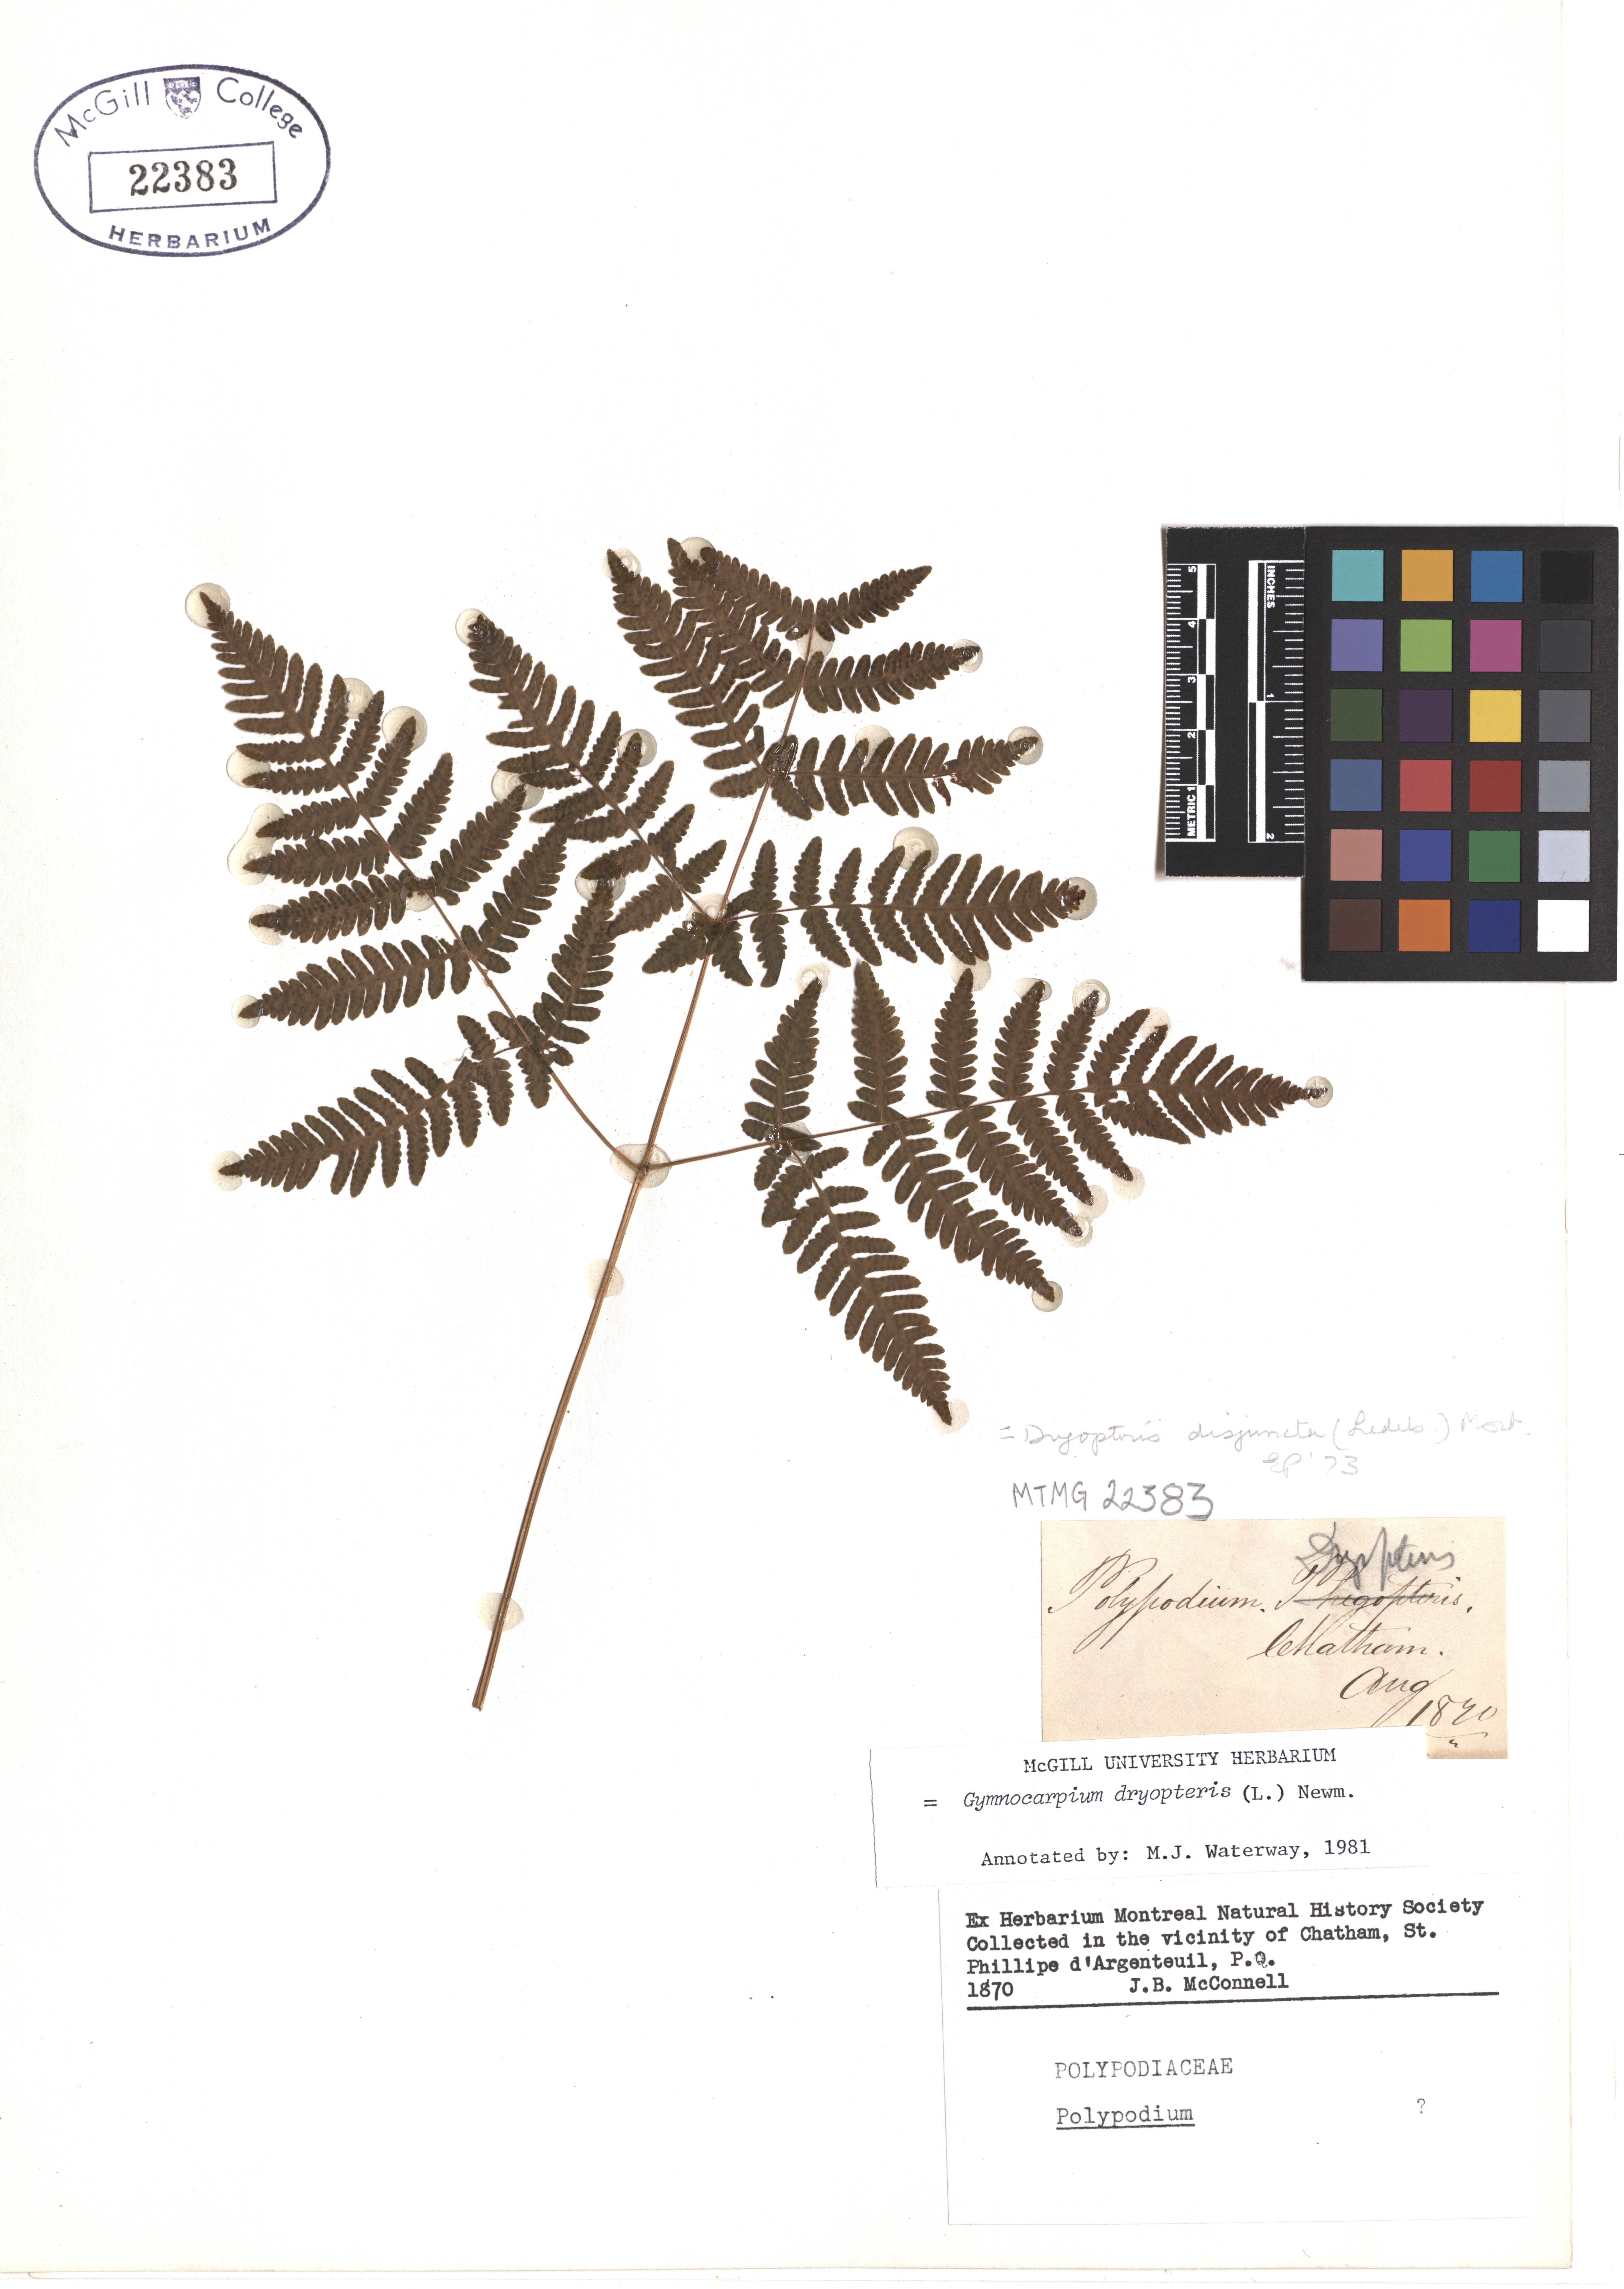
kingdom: Plantae
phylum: Tracheophyta
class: Polypodiopsida
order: Polypodiales
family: Cystopteridaceae
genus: Gymnocarpium
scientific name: Gymnocarpium dryopteris
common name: Oak fern
